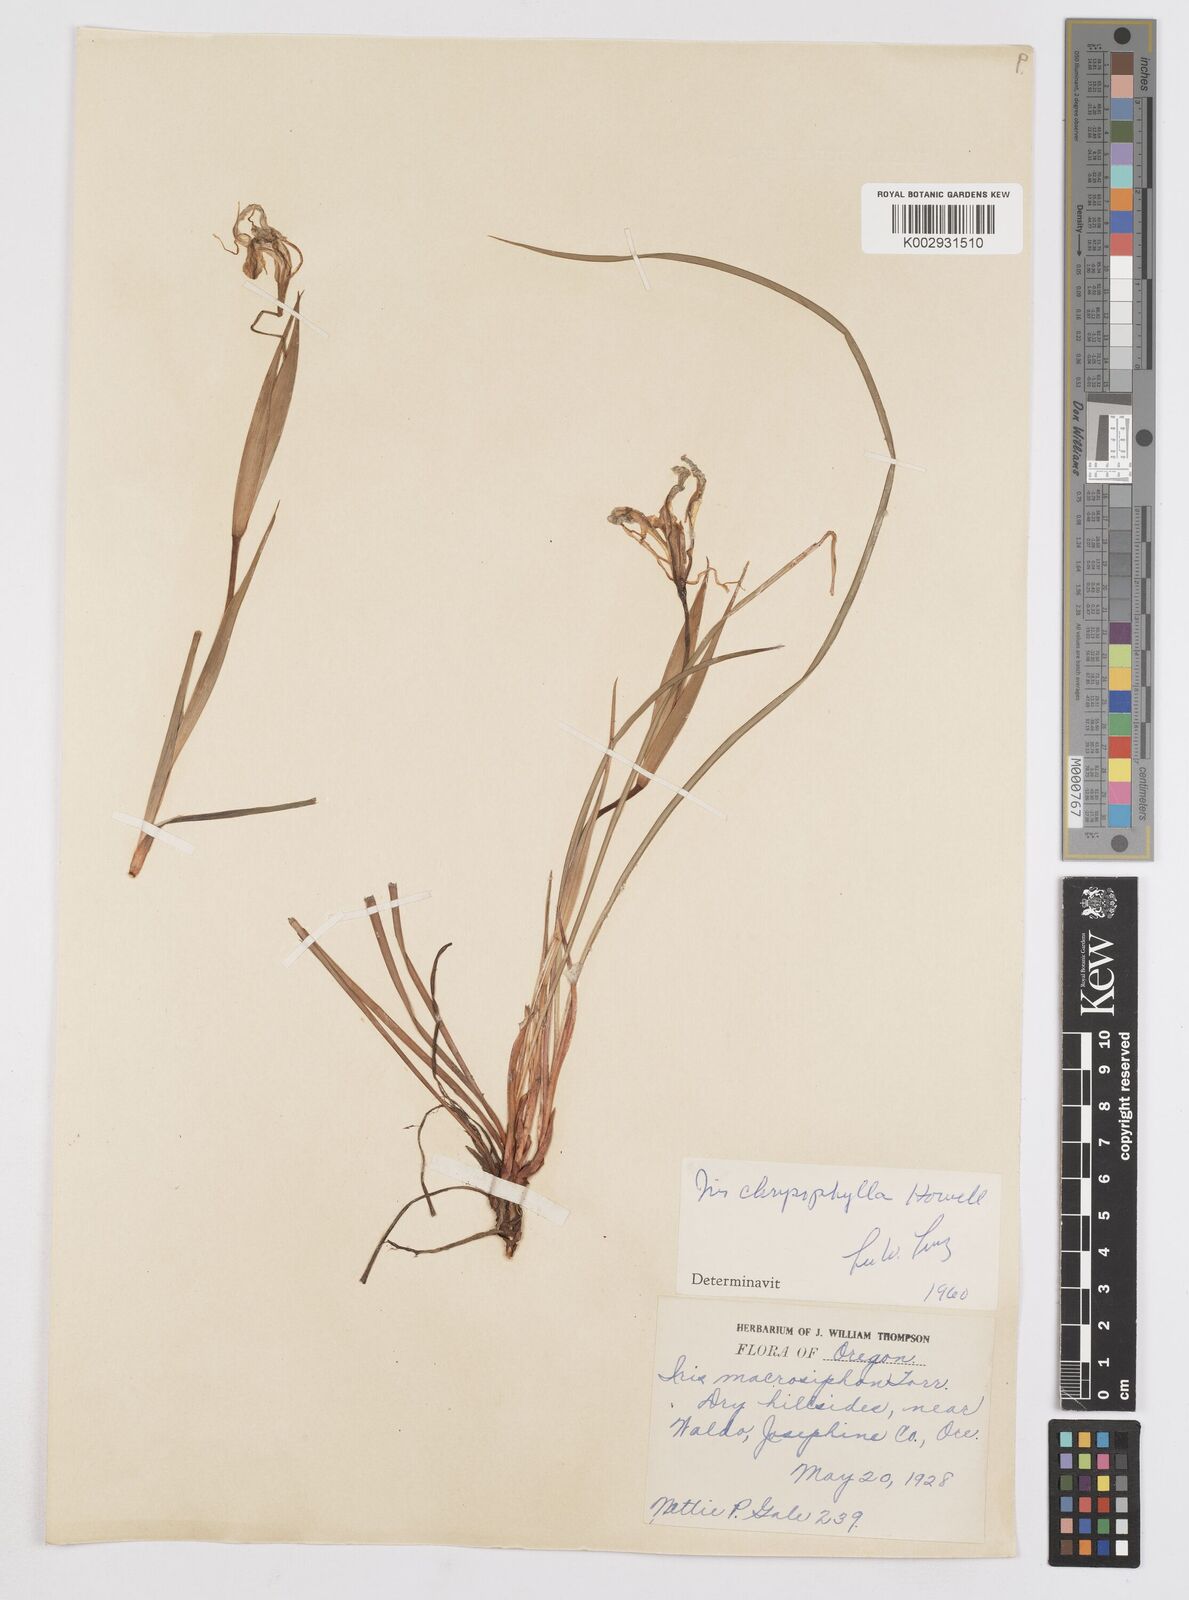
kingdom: Plantae
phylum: Tracheophyta
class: Liliopsida
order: Asparagales
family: Iridaceae
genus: Iris
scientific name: Iris chrysophylla
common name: Yellow-leaf iris
